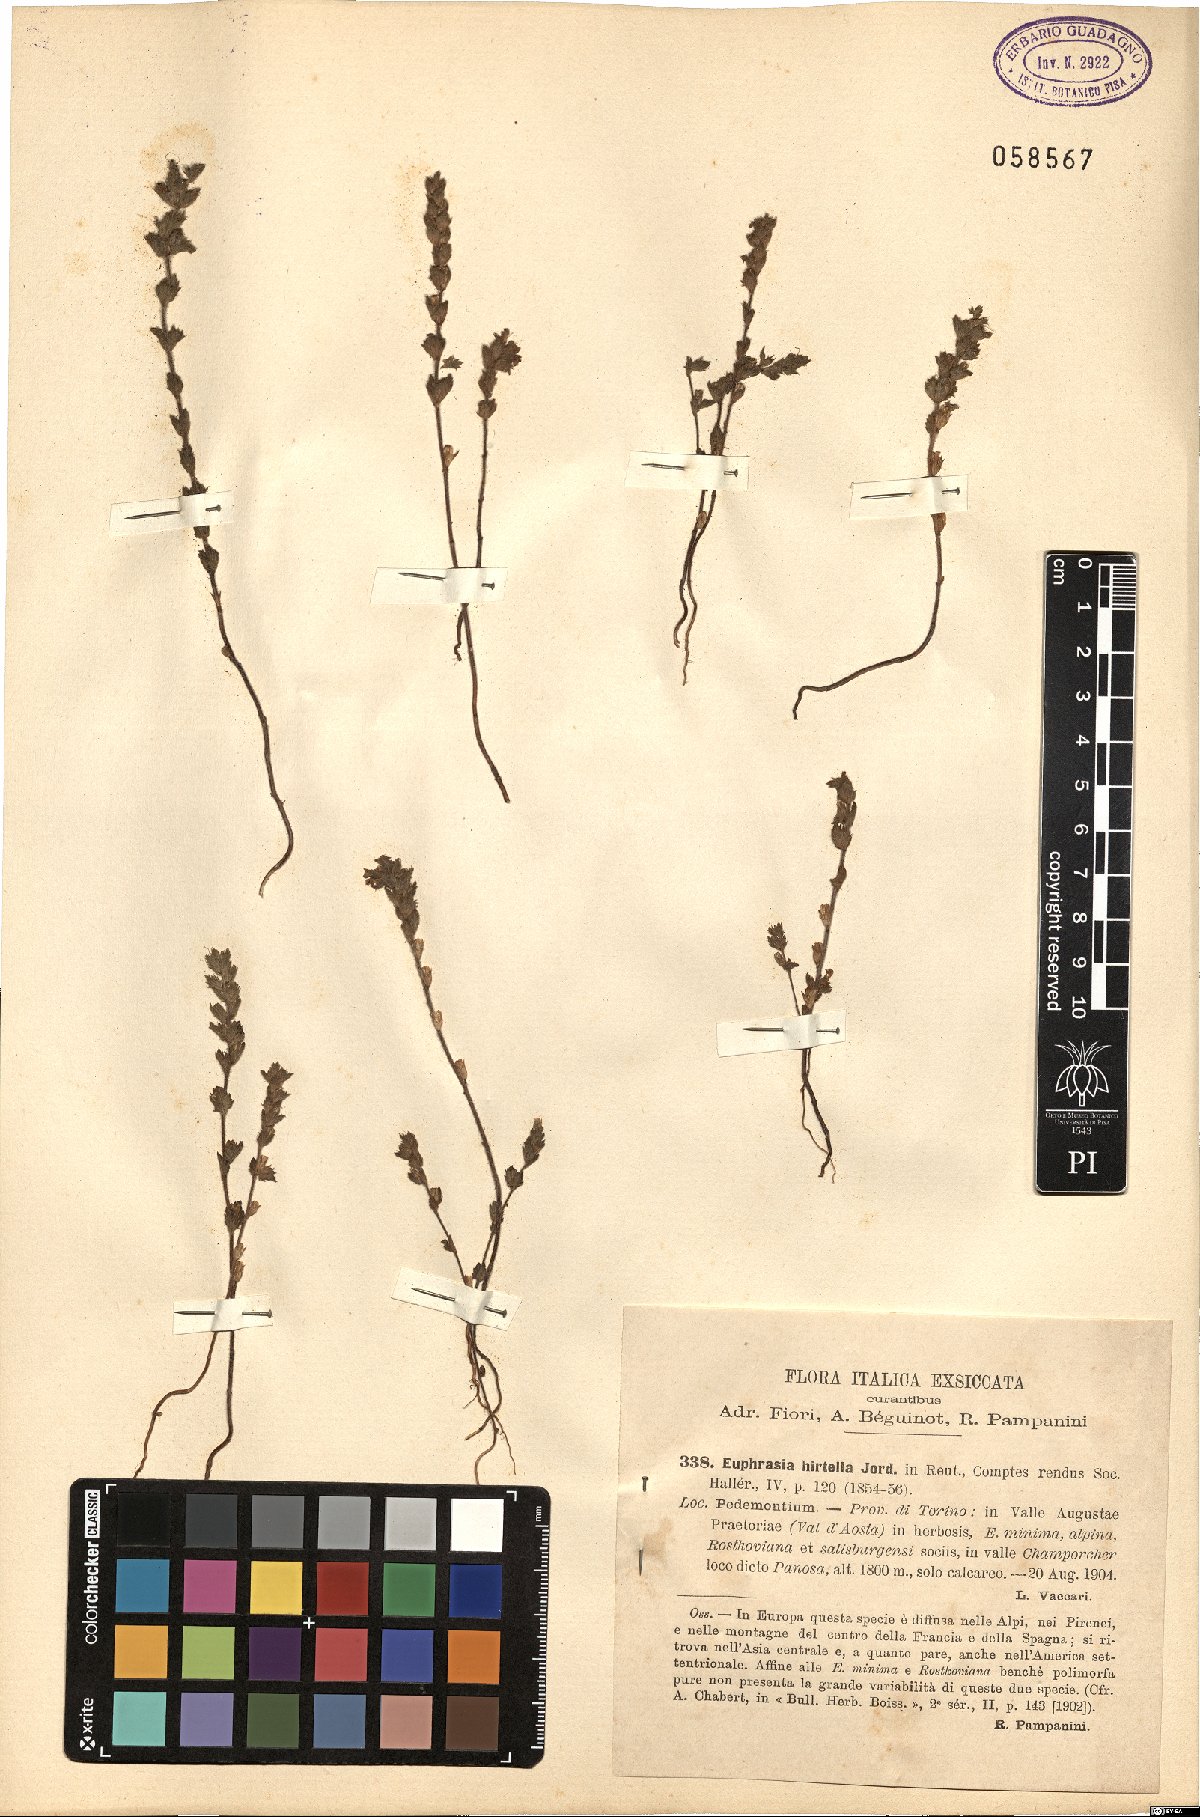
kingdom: Plantae
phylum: Tracheophyta
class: Magnoliopsida
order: Lamiales
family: Orobanchaceae
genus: Euphrasia
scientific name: Euphrasia hirtella
